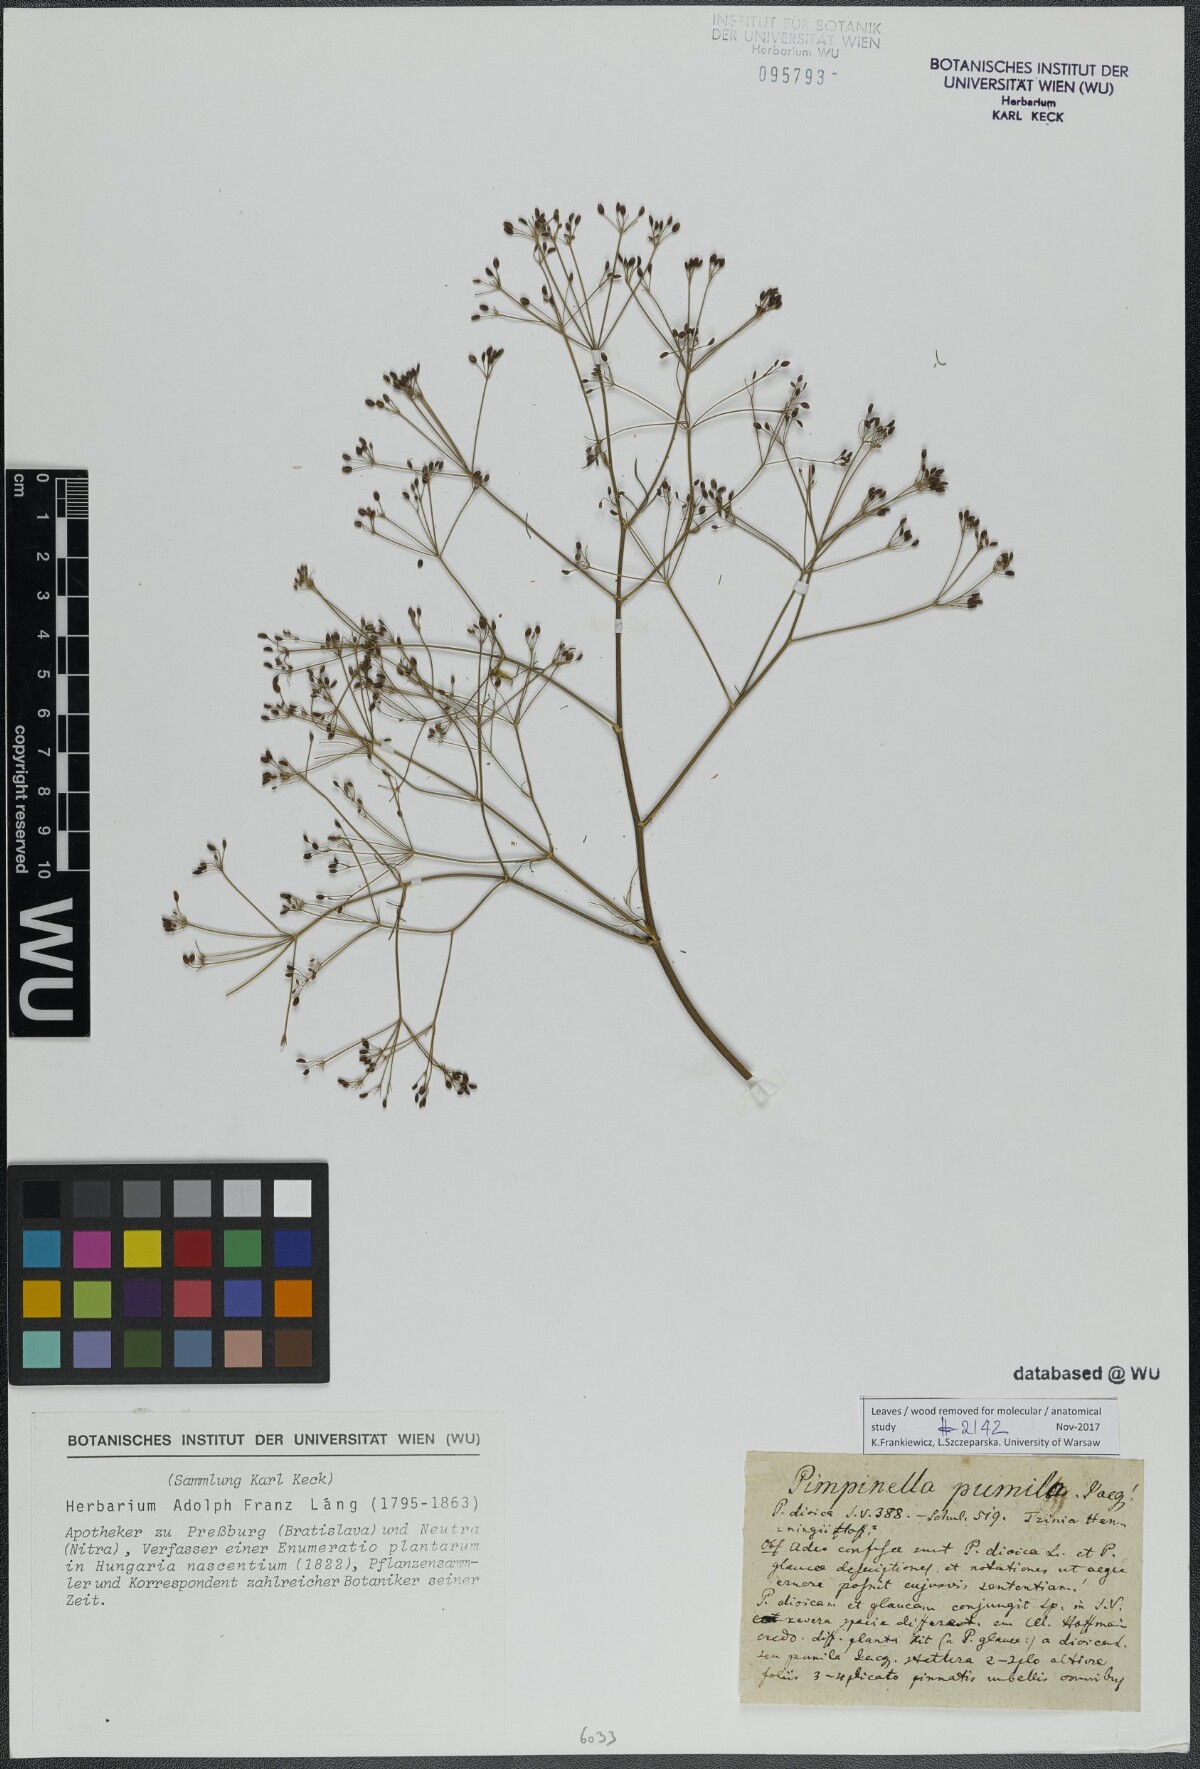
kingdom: Plantae
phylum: Tracheophyta
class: Magnoliopsida
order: Apiales
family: Apiaceae
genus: Trinia
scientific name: Trinia glauca
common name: Honewort
